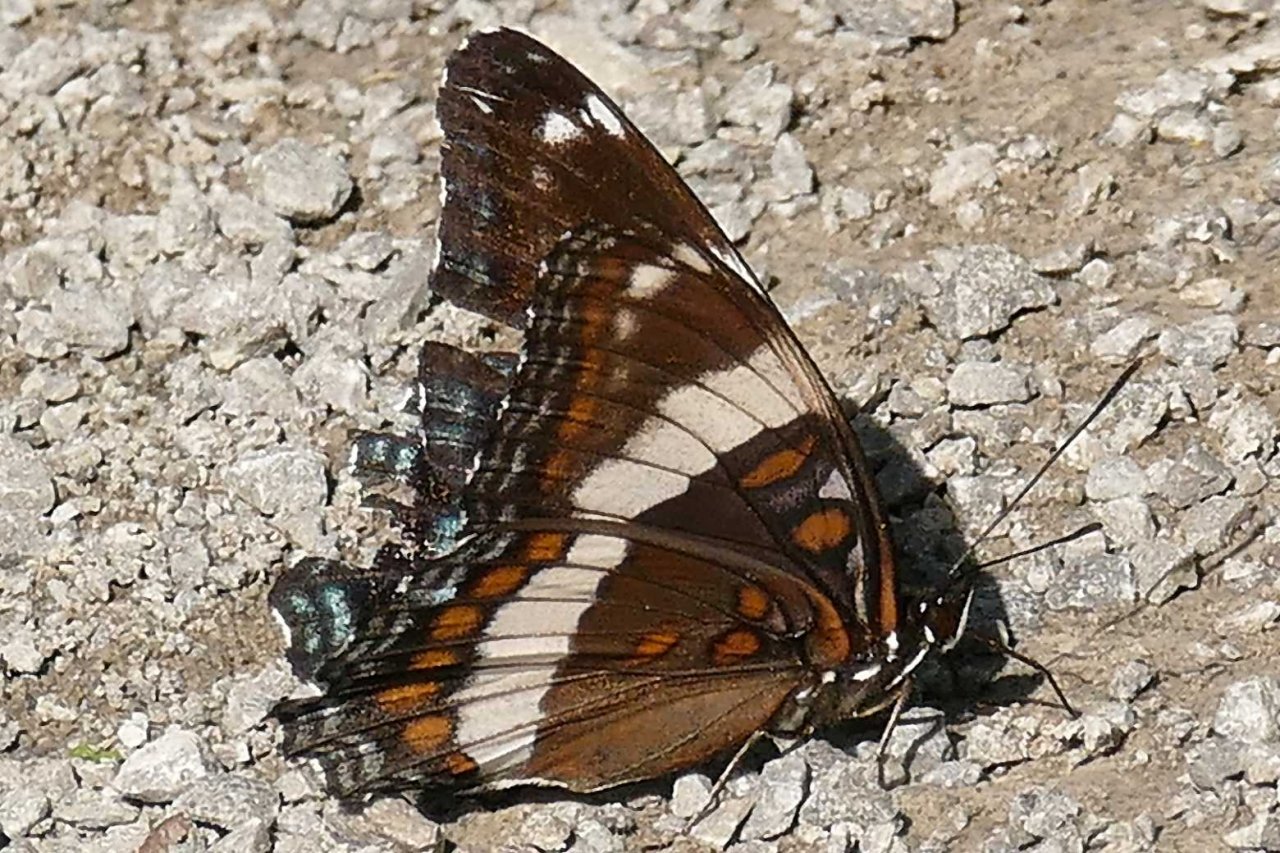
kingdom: Animalia
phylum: Arthropoda
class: Insecta
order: Lepidoptera
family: Nymphalidae
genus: Limenitis
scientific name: Limenitis arthemis
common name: Red-spotted Admiral
